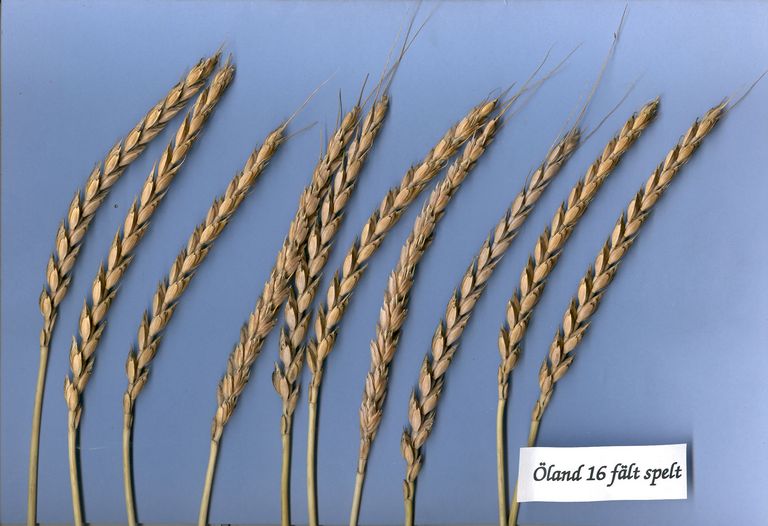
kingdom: Plantae
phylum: Tracheophyta
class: Liliopsida
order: Poales
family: Poaceae
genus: Triticum
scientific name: Triticum aestivum
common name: Common wheat
